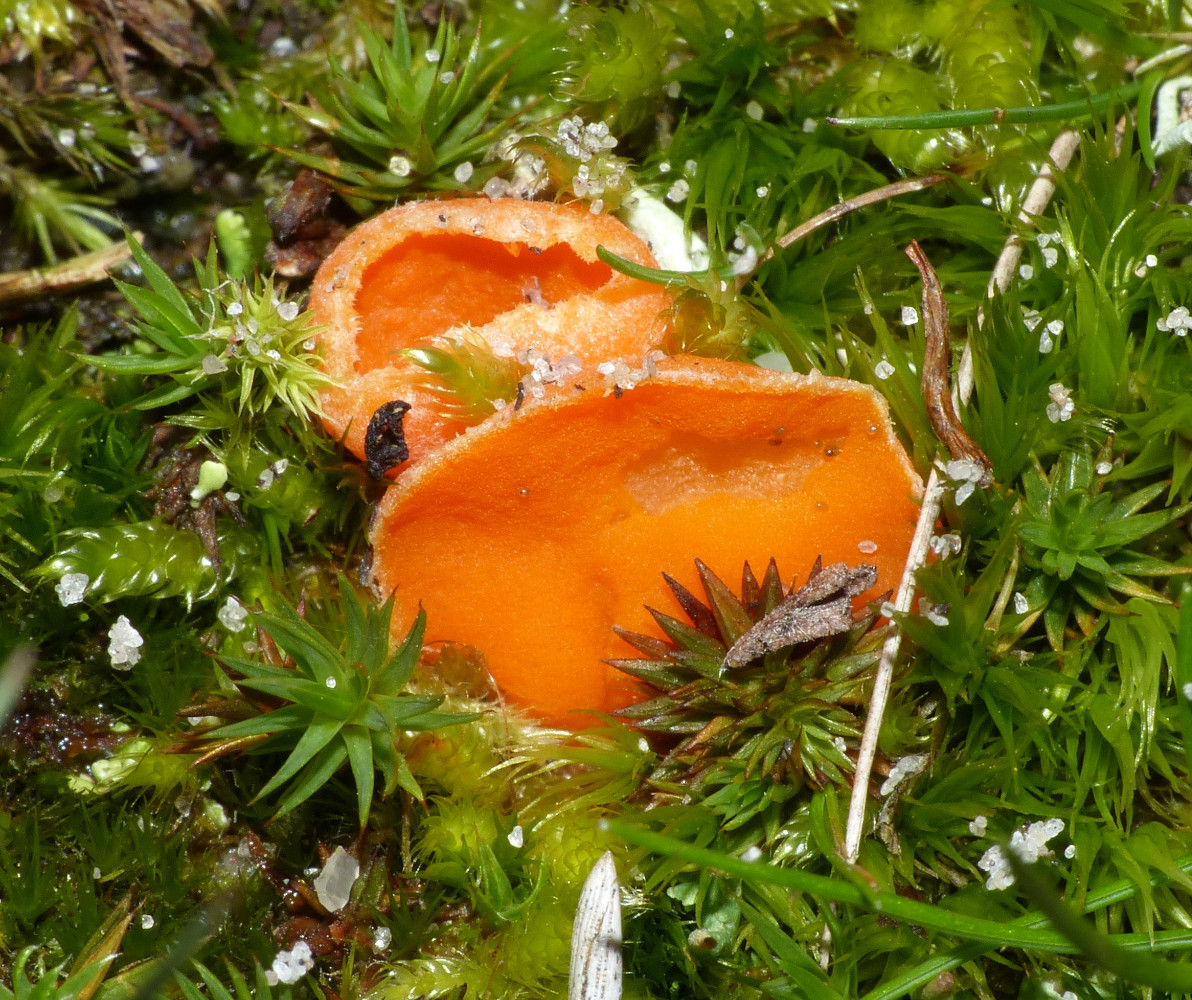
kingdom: Fungi
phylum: Ascomycota
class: Pezizomycetes
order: Pezizales
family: Pyronemataceae
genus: Neottiella
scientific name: Neottiella rutilans
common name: jomfruhår-mosbæger
